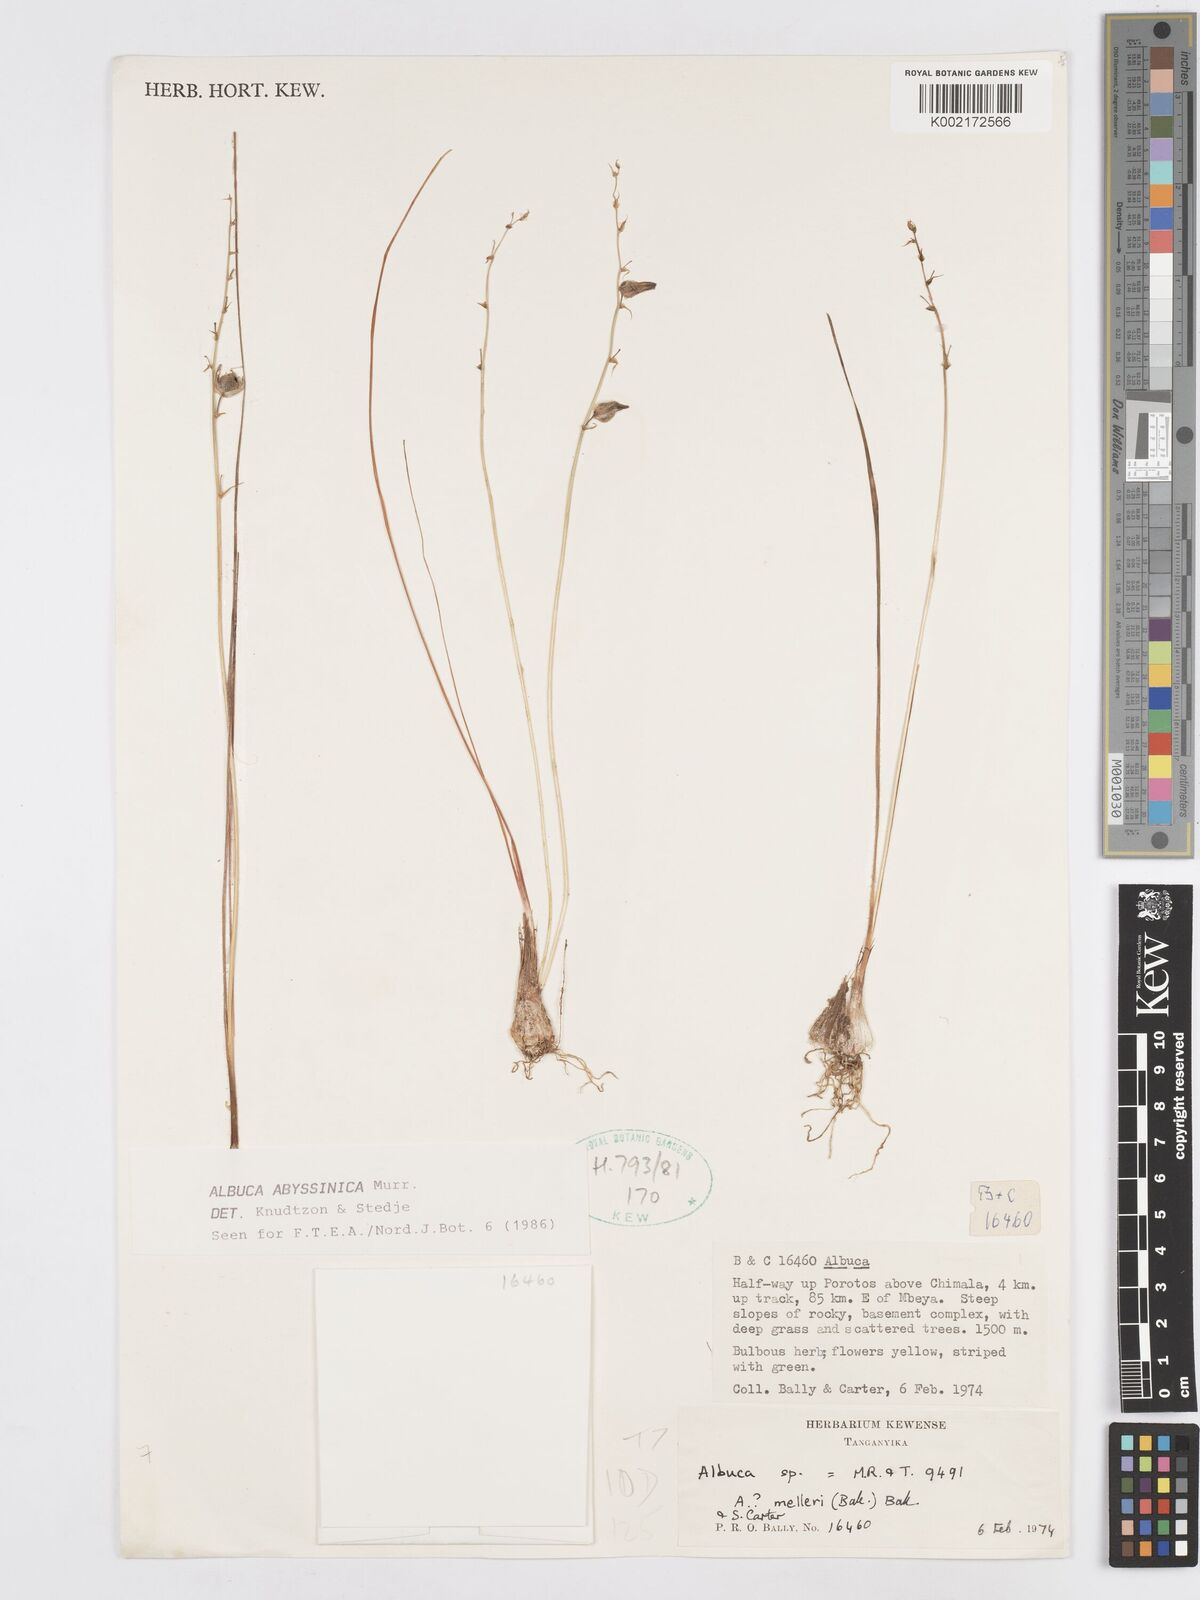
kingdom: Plantae
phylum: Tracheophyta
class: Liliopsida
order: Asparagales
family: Asparagaceae
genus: Albuca
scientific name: Albuca abyssinica
